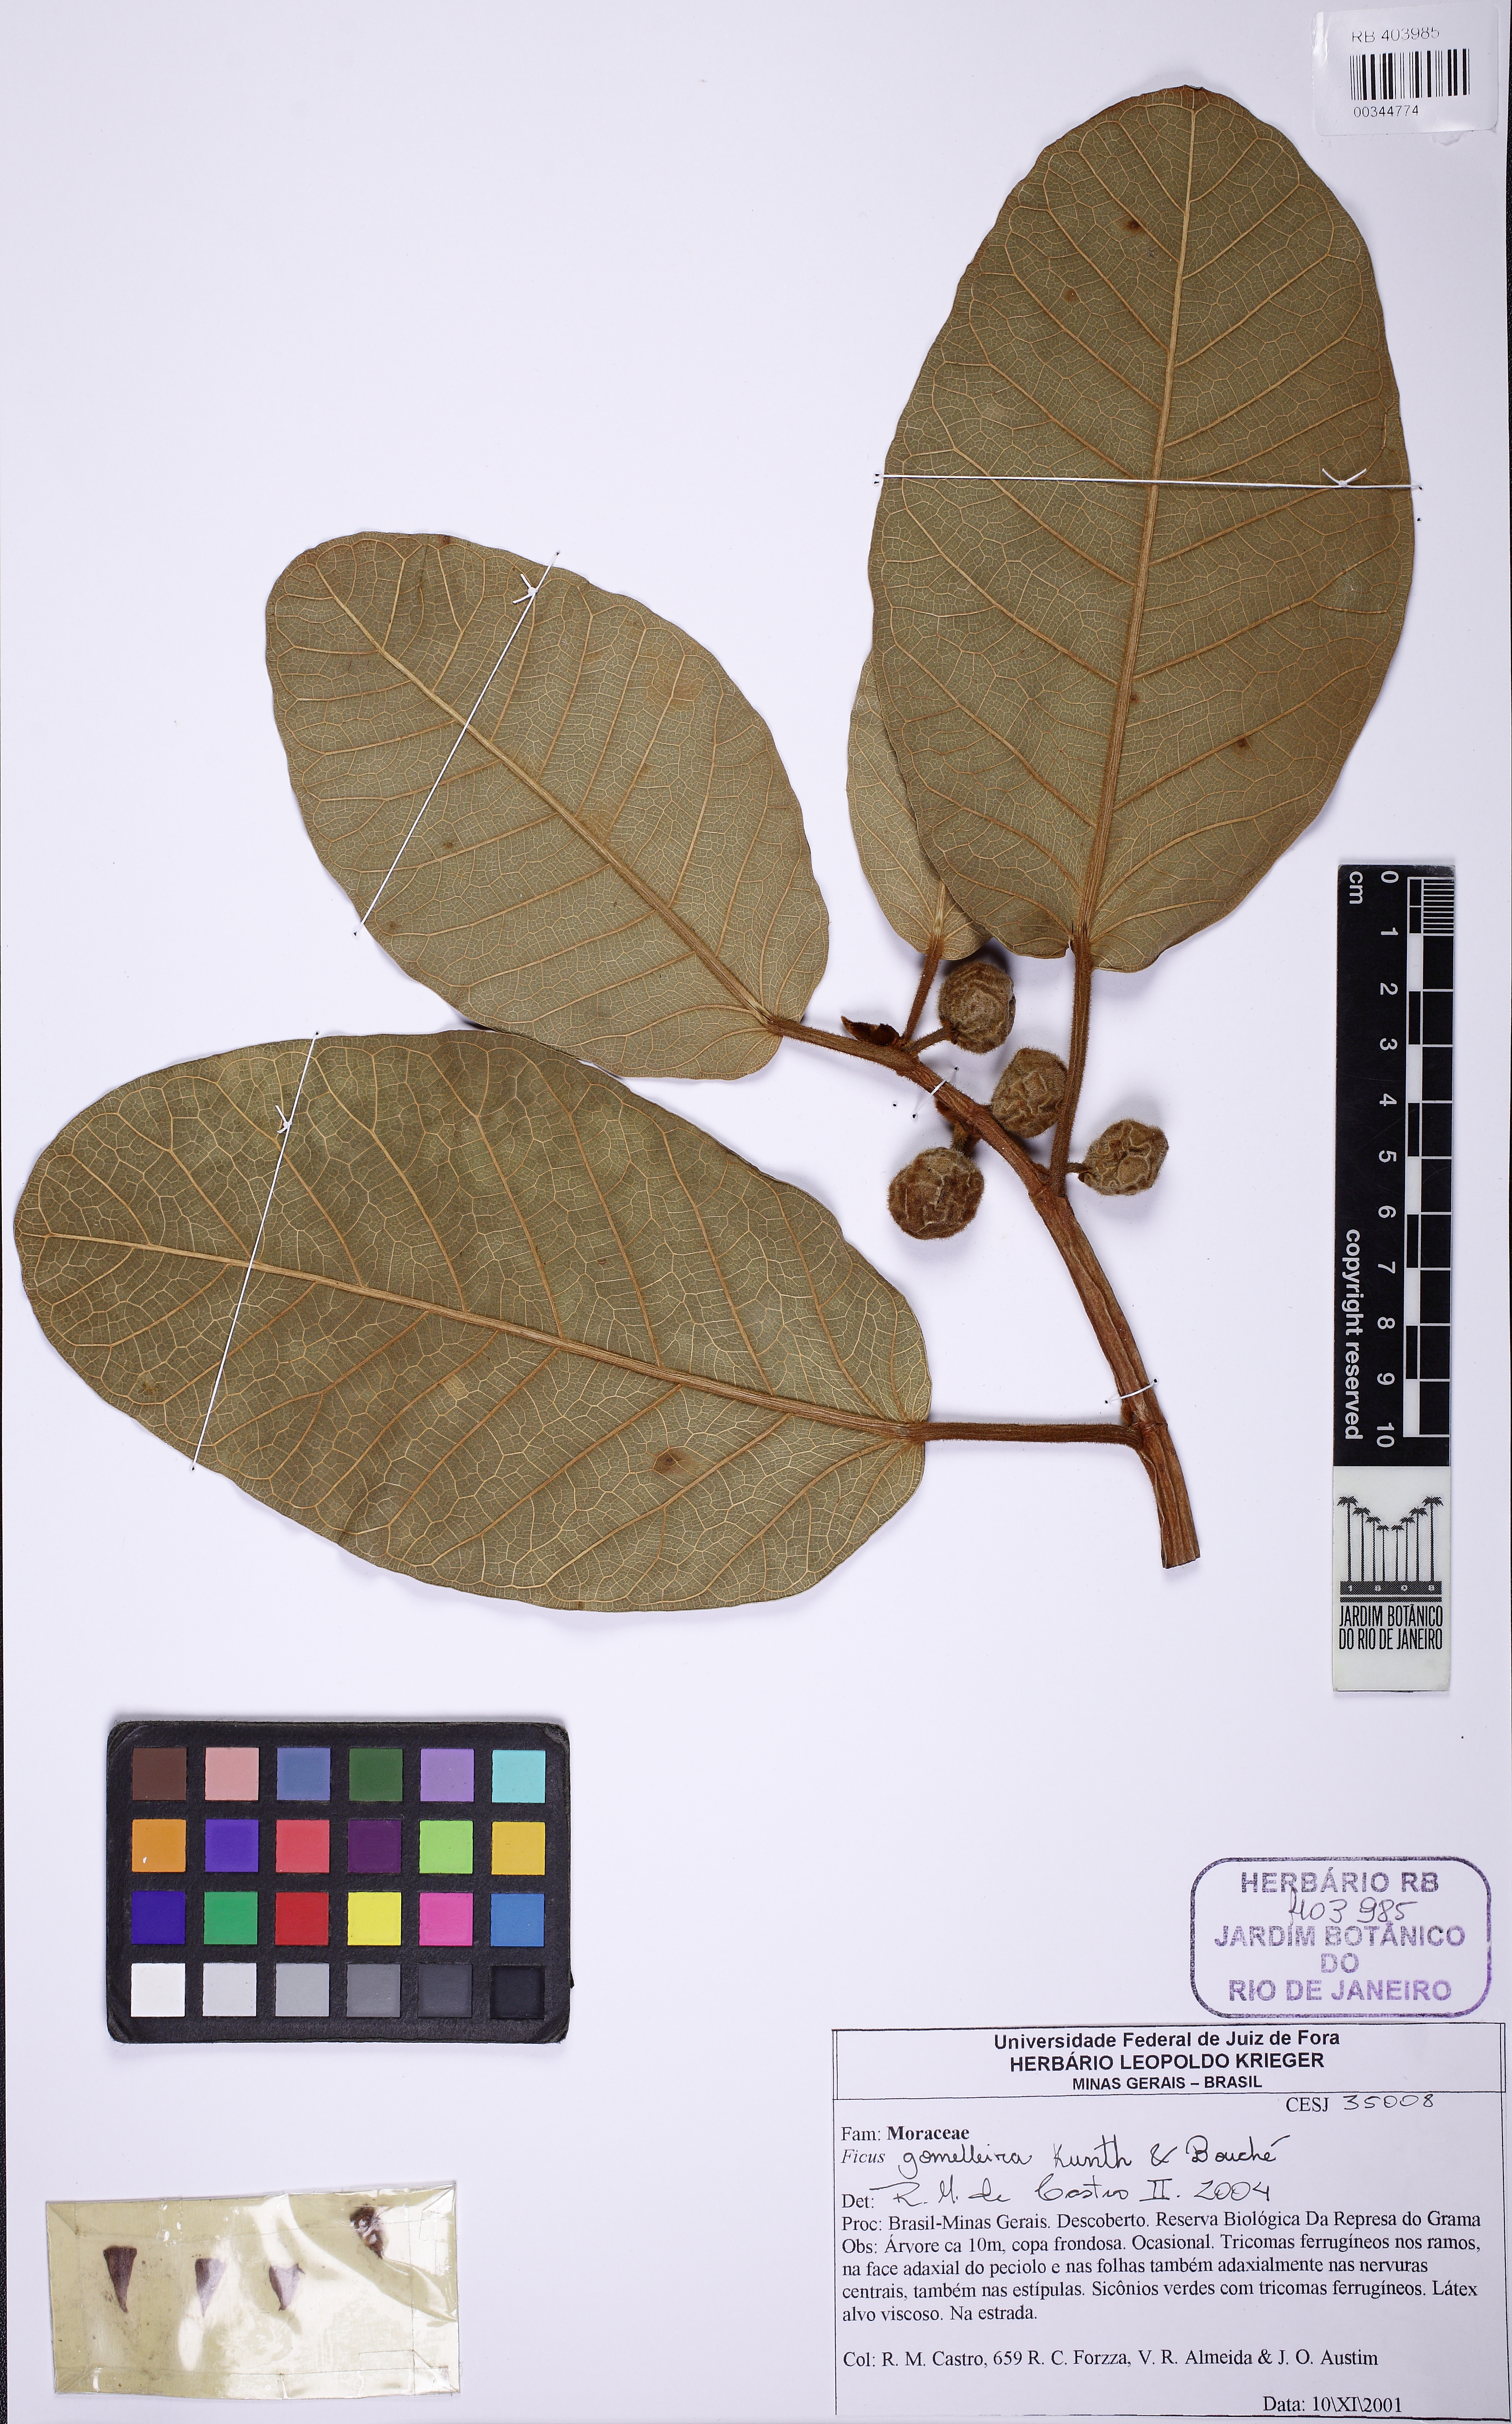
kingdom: Plantae
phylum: Tracheophyta
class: Magnoliopsida
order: Rosales
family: Moraceae
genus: Ficus
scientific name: Ficus gomelleira
